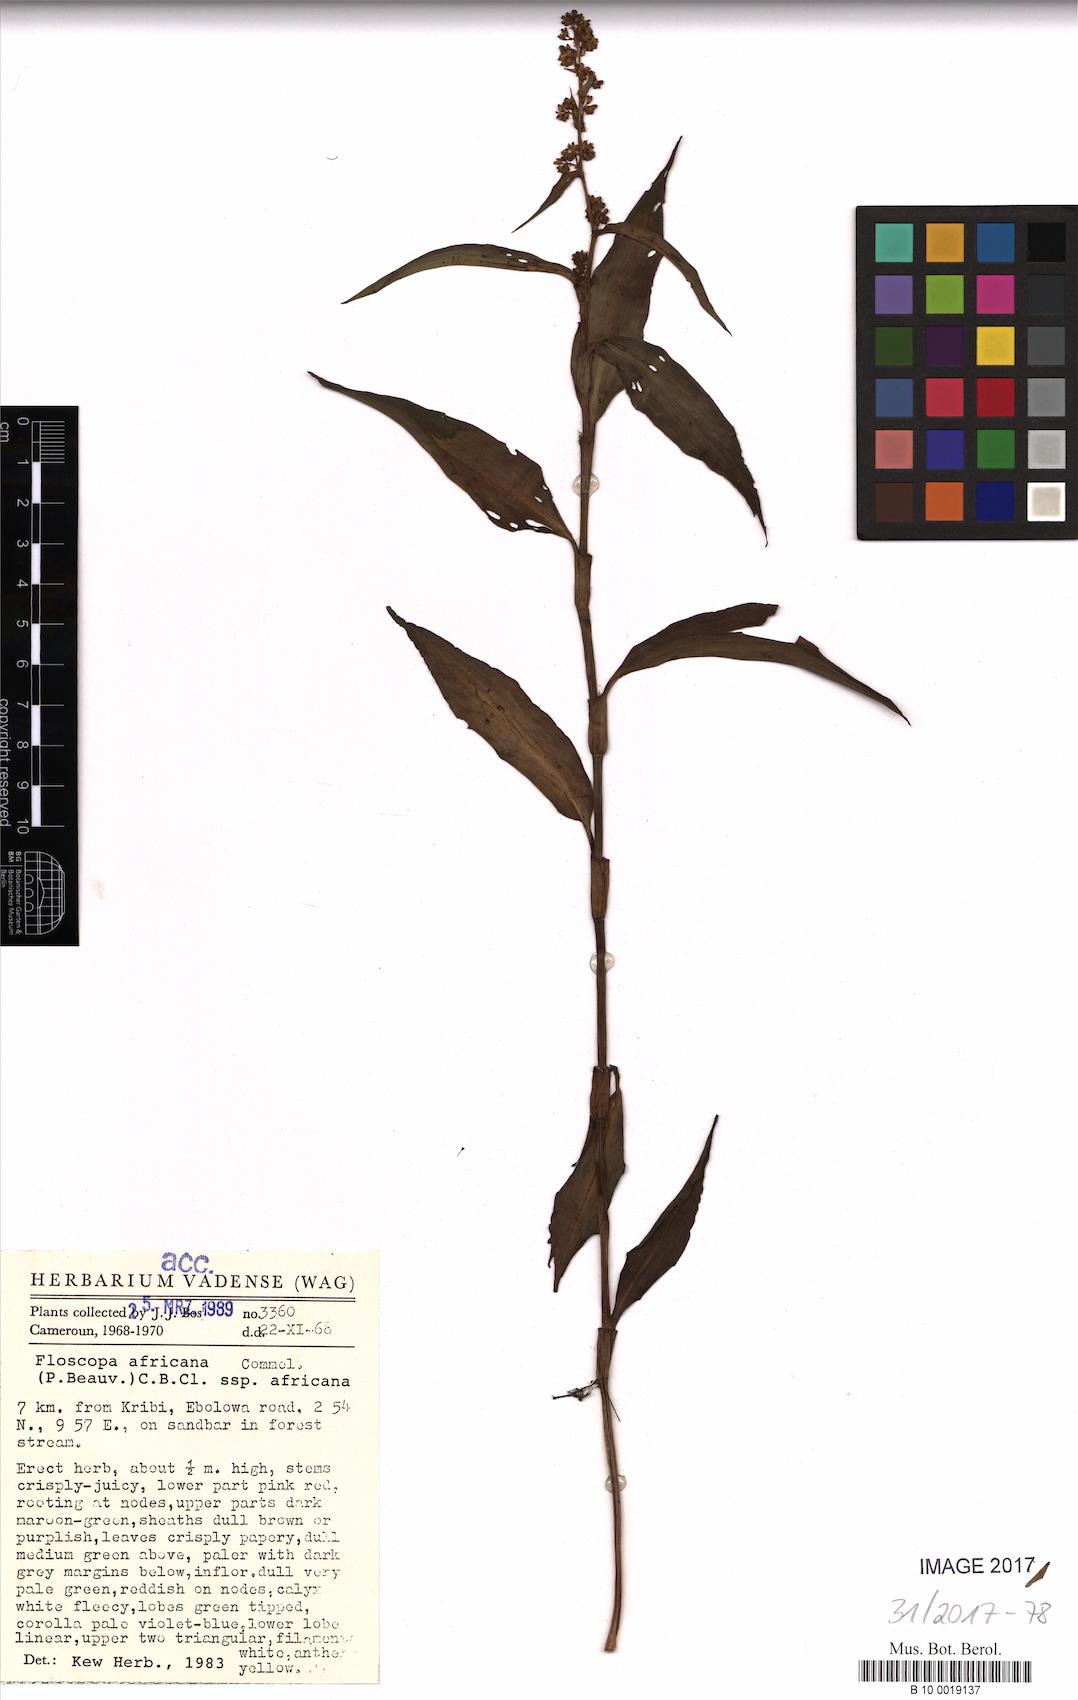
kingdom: Plantae
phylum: Tracheophyta
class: Liliopsida
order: Commelinales
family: Commelinaceae
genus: Floscopa
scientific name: Floscopa africana
